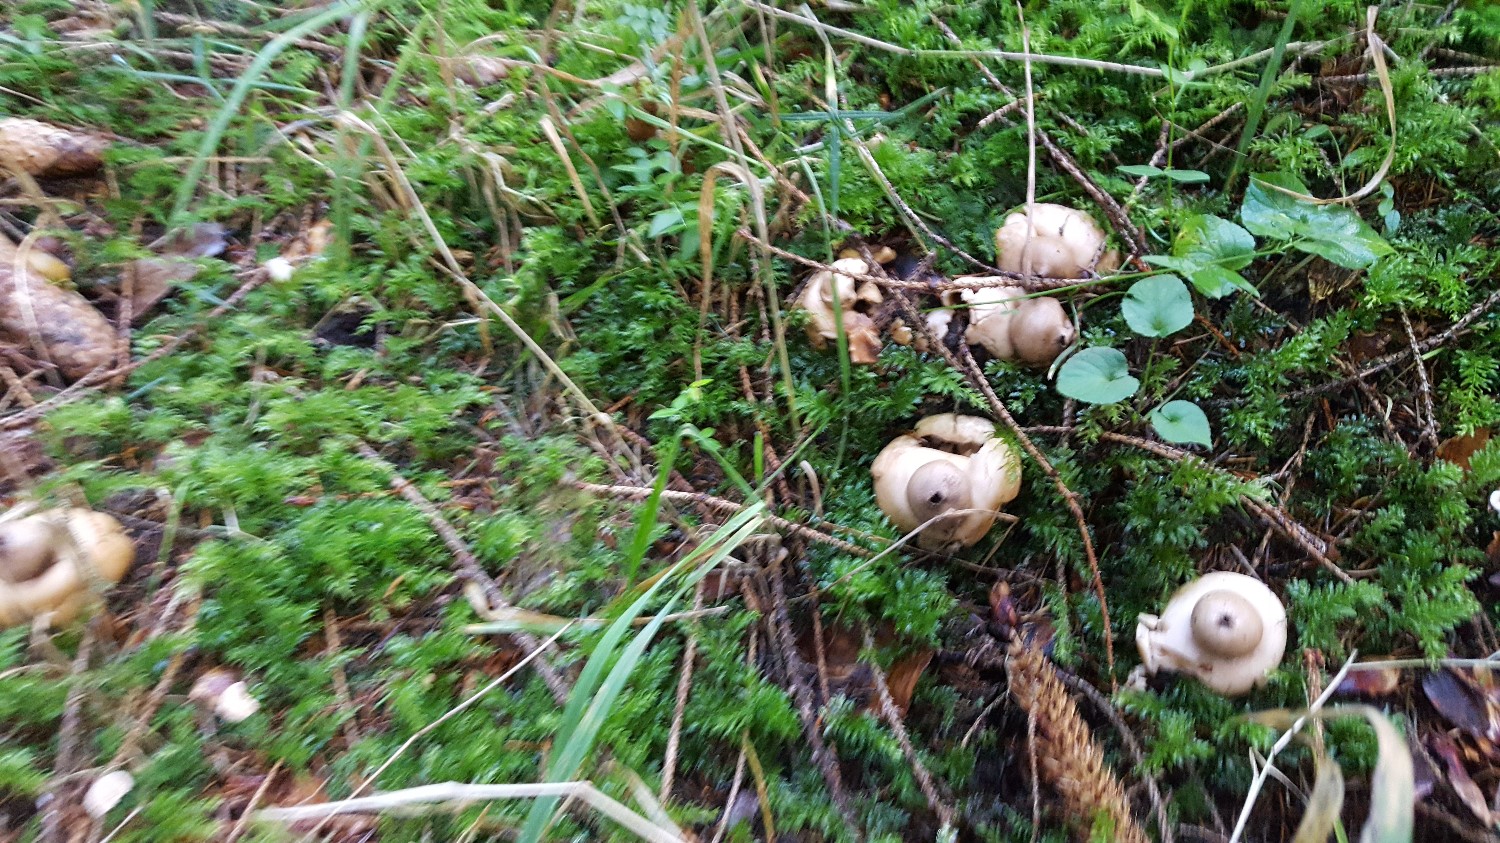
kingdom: Fungi
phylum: Basidiomycota
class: Agaricomycetes
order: Geastrales
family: Geastraceae
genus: Geastrum
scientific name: Geastrum fimbriatum
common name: frynset stjernebold
